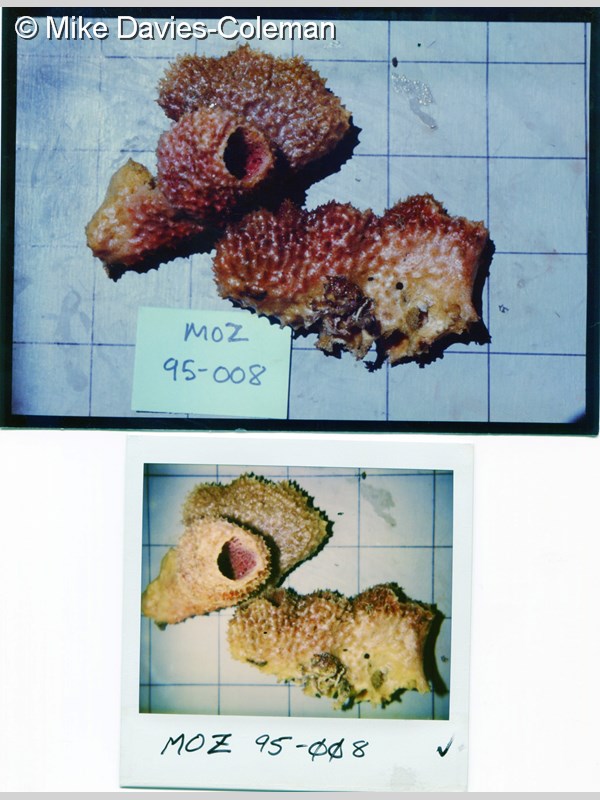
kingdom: Animalia
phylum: Porifera
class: Demospongiae
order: Haplosclerida
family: Callyspongiidae
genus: Callyspongia
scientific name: Callyspongia confoederata
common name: Spiky tube sponge
